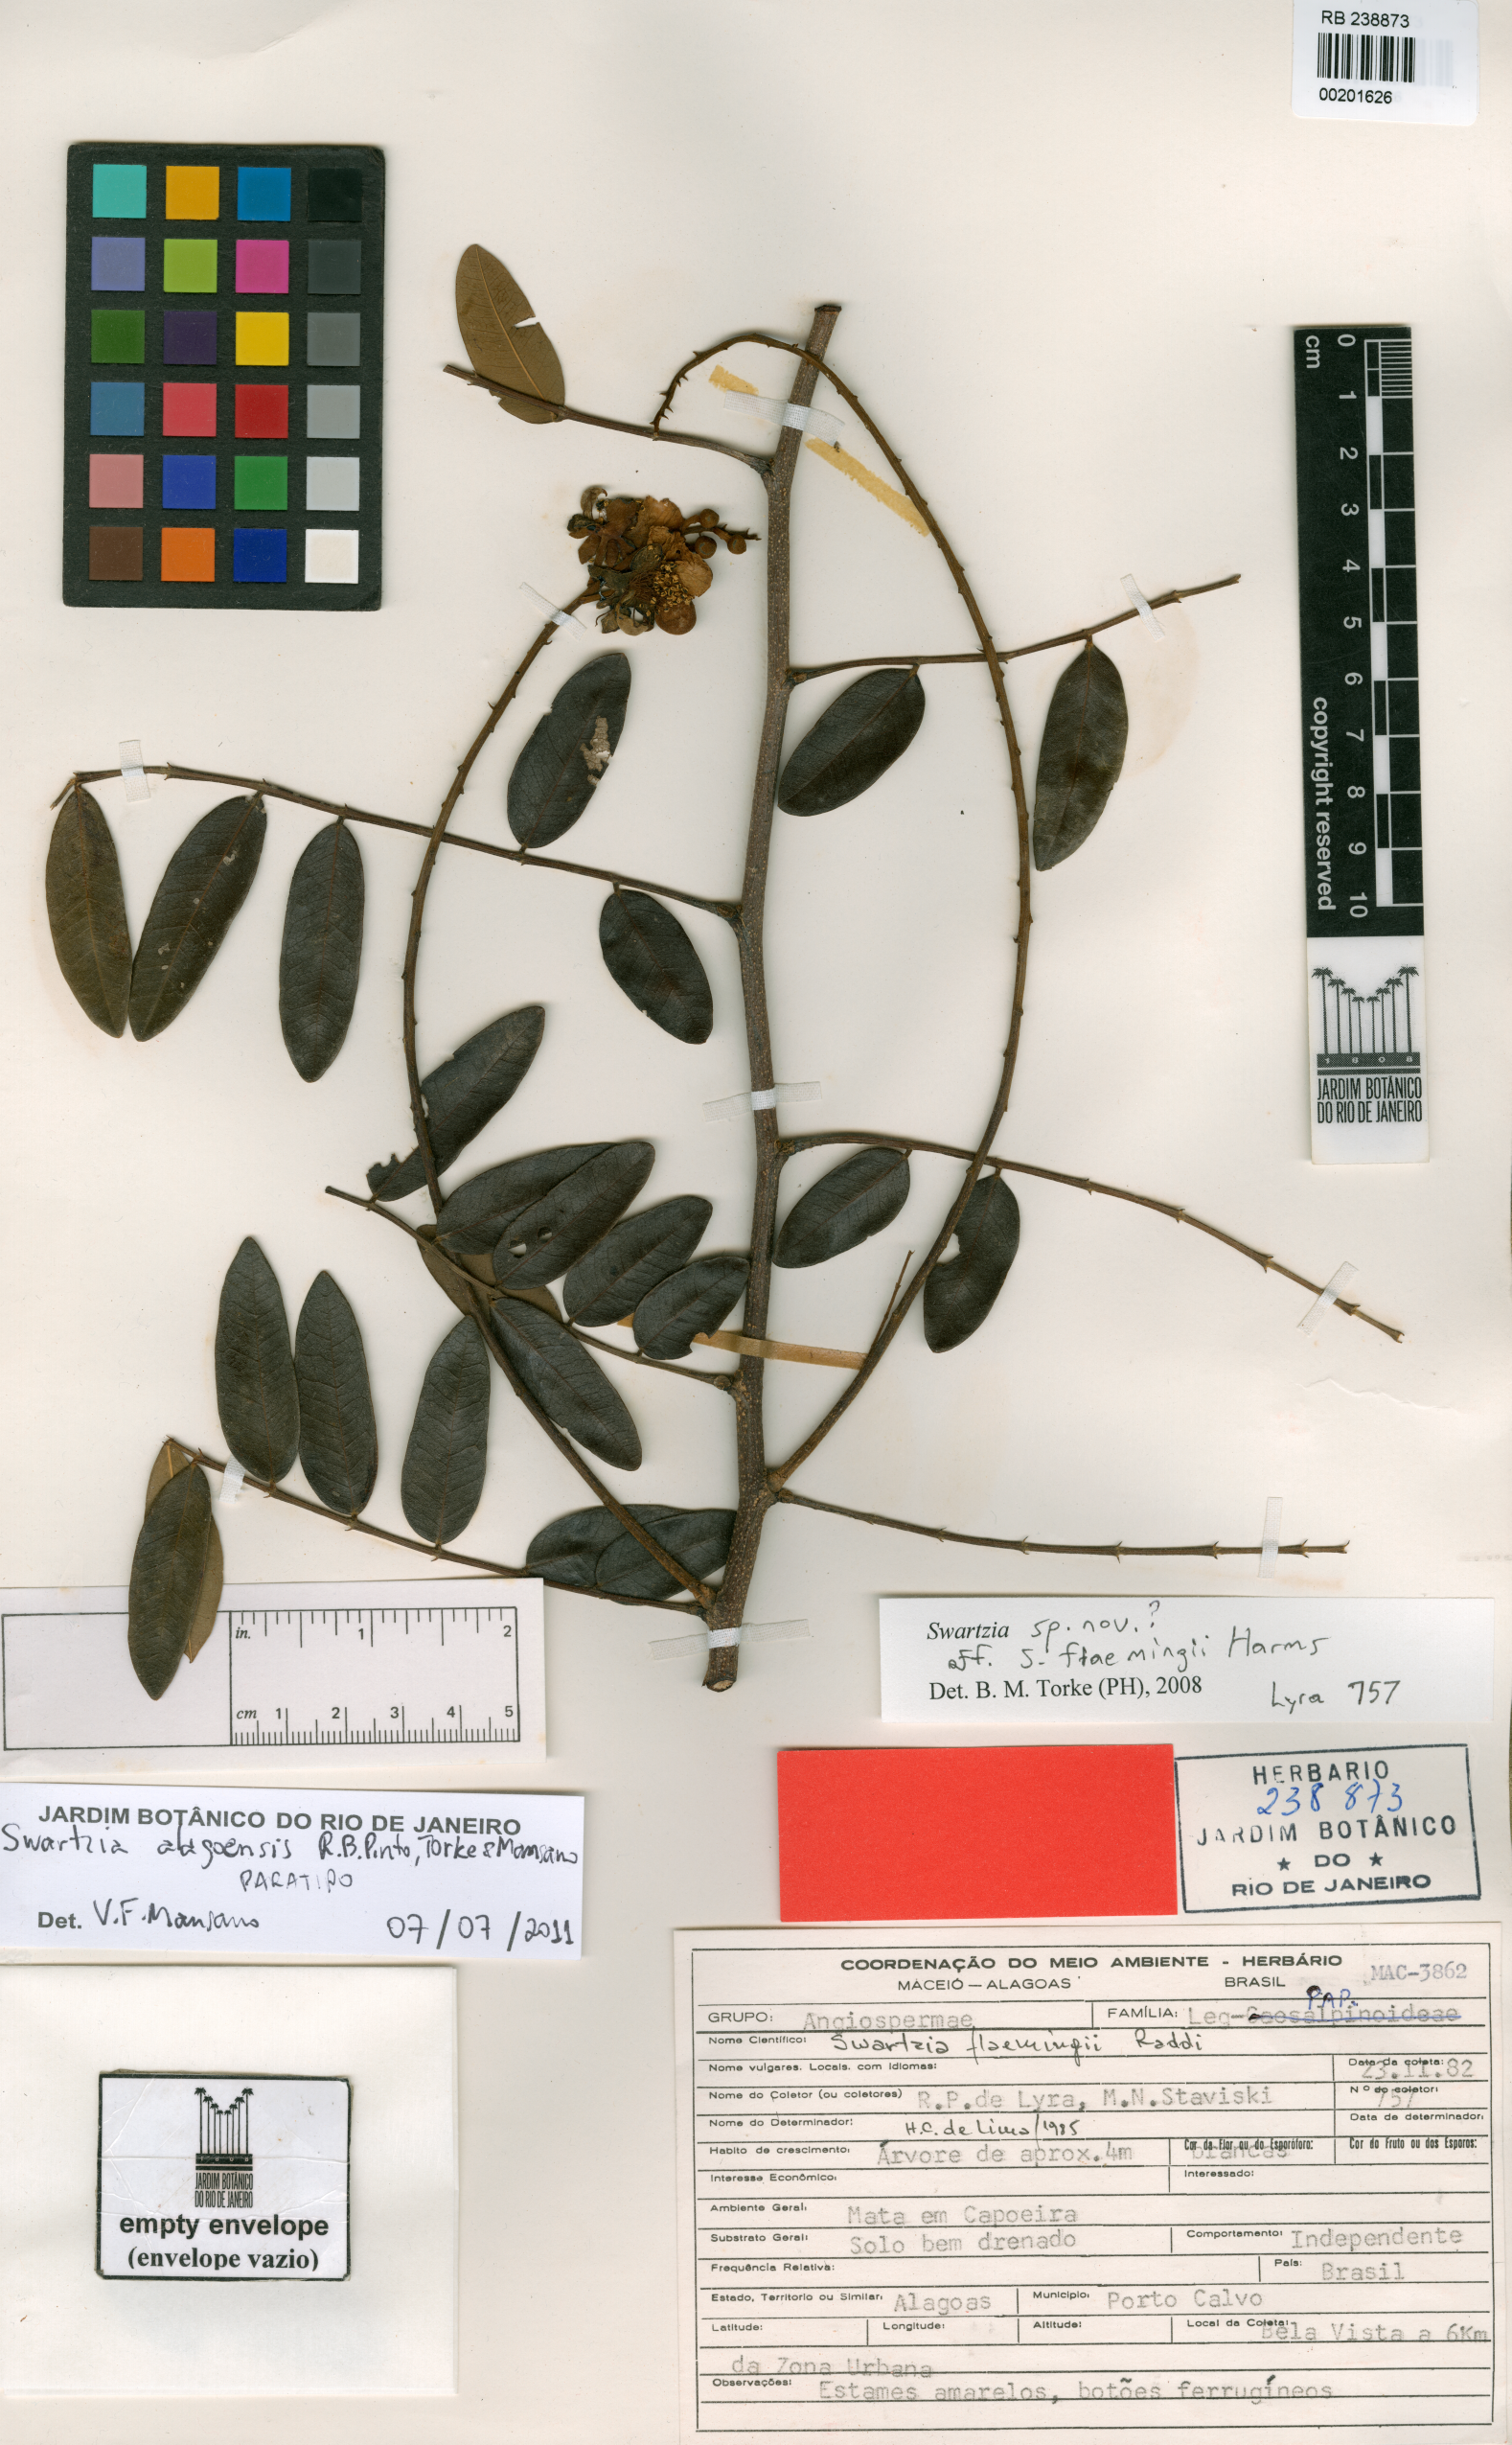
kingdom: Plantae
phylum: Tracheophyta
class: Magnoliopsida
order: Fabales
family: Fabaceae
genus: Swartzia
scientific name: Swartzia alagoensis
